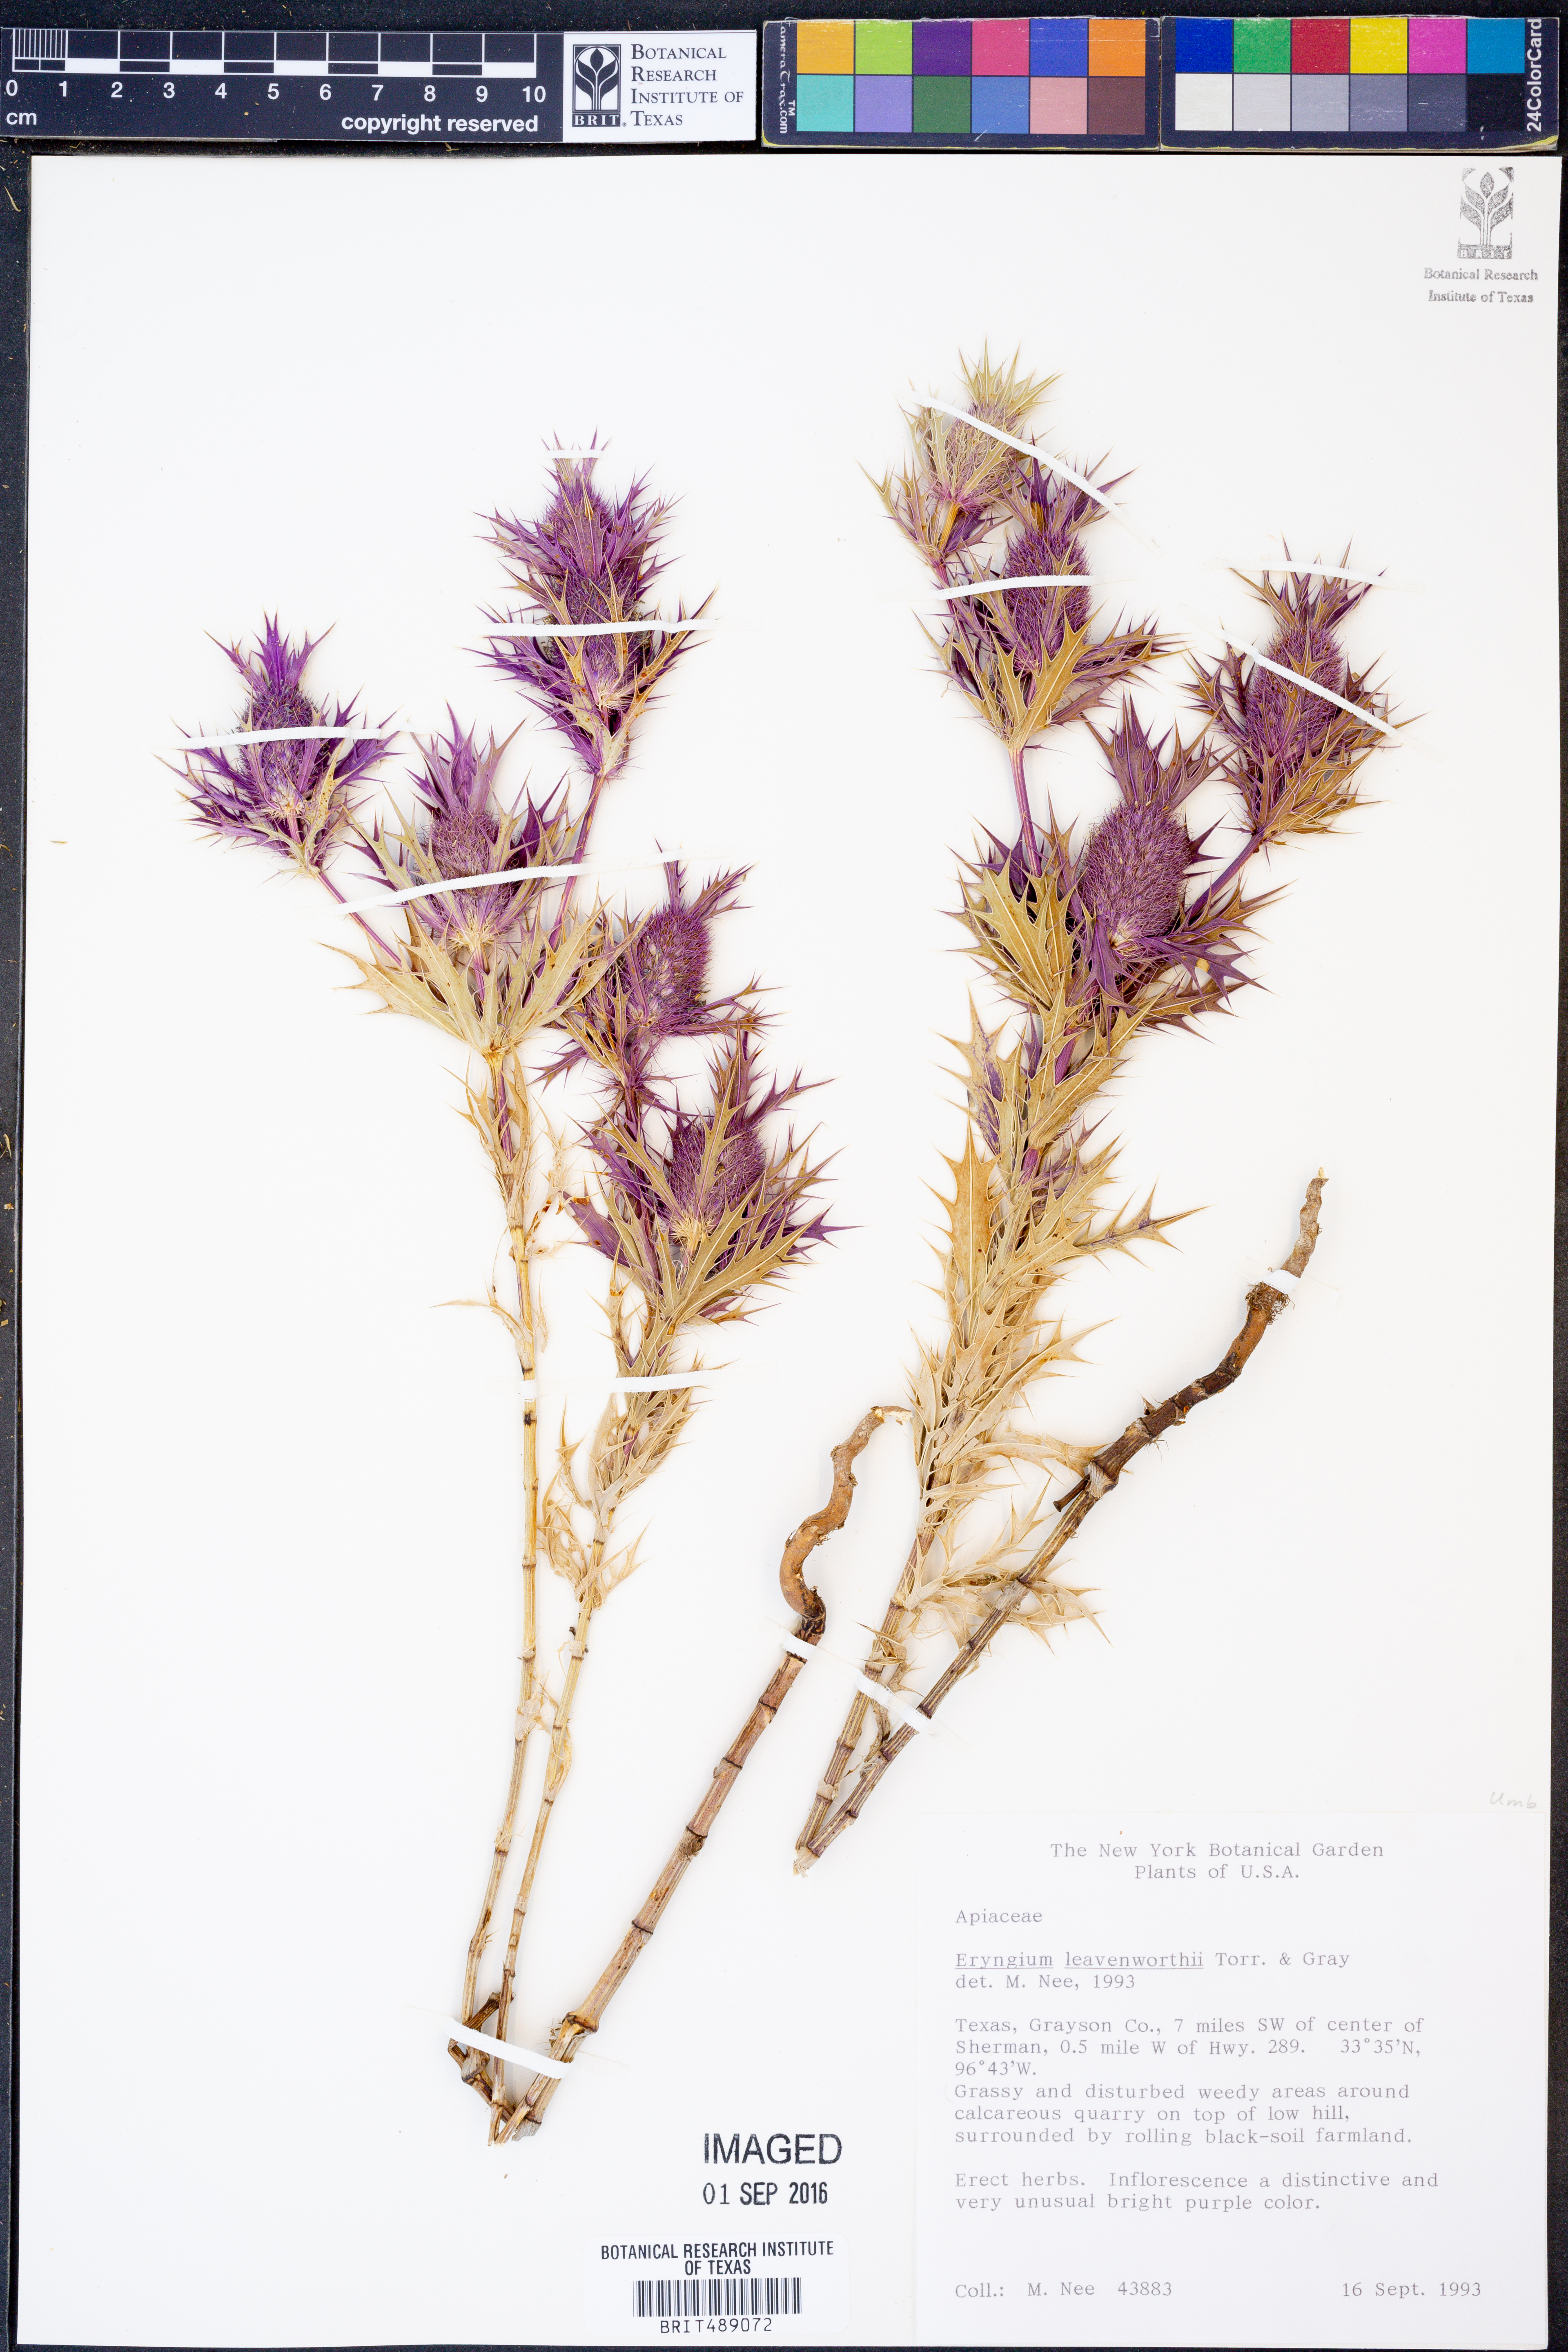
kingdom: Plantae
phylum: Tracheophyta
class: Magnoliopsida
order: Apiales
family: Apiaceae
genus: Eryngium
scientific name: Eryngium leavenworthii
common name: Leavenworth's eryngo
